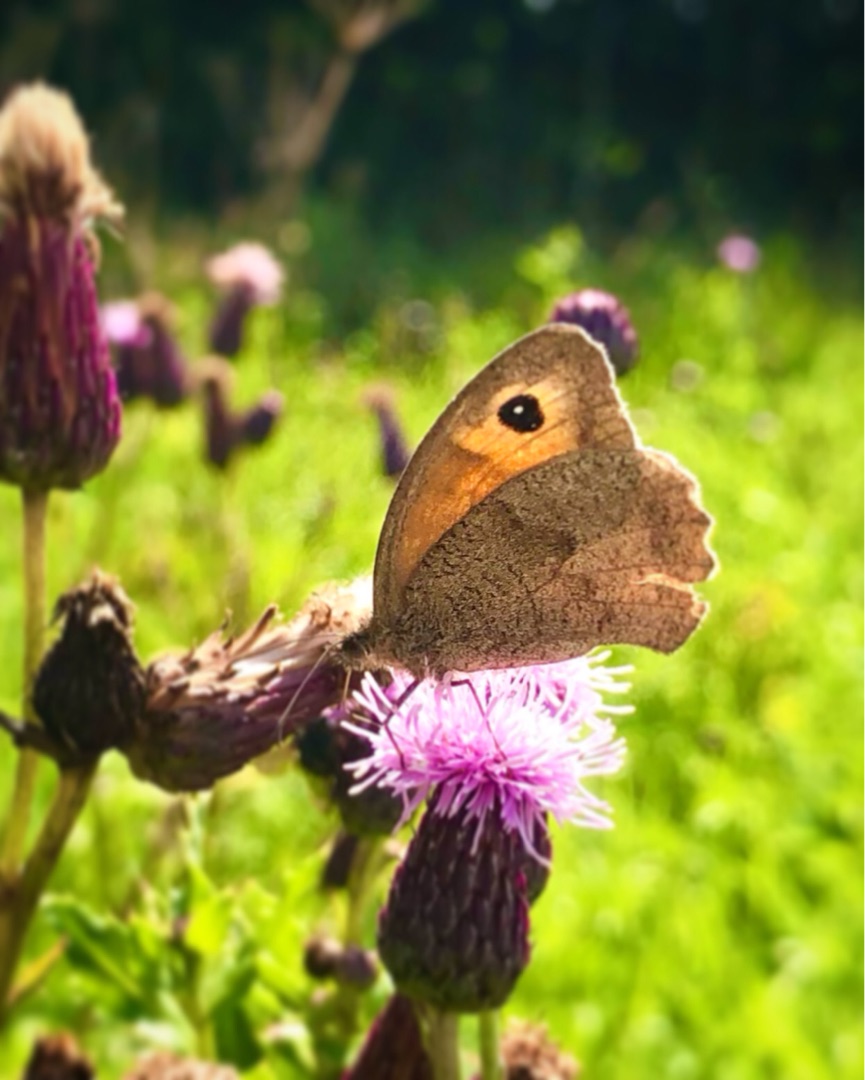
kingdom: Animalia
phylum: Arthropoda
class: Insecta
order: Lepidoptera
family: Nymphalidae
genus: Maniola
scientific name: Maniola jurtina
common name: Græsrandøje
